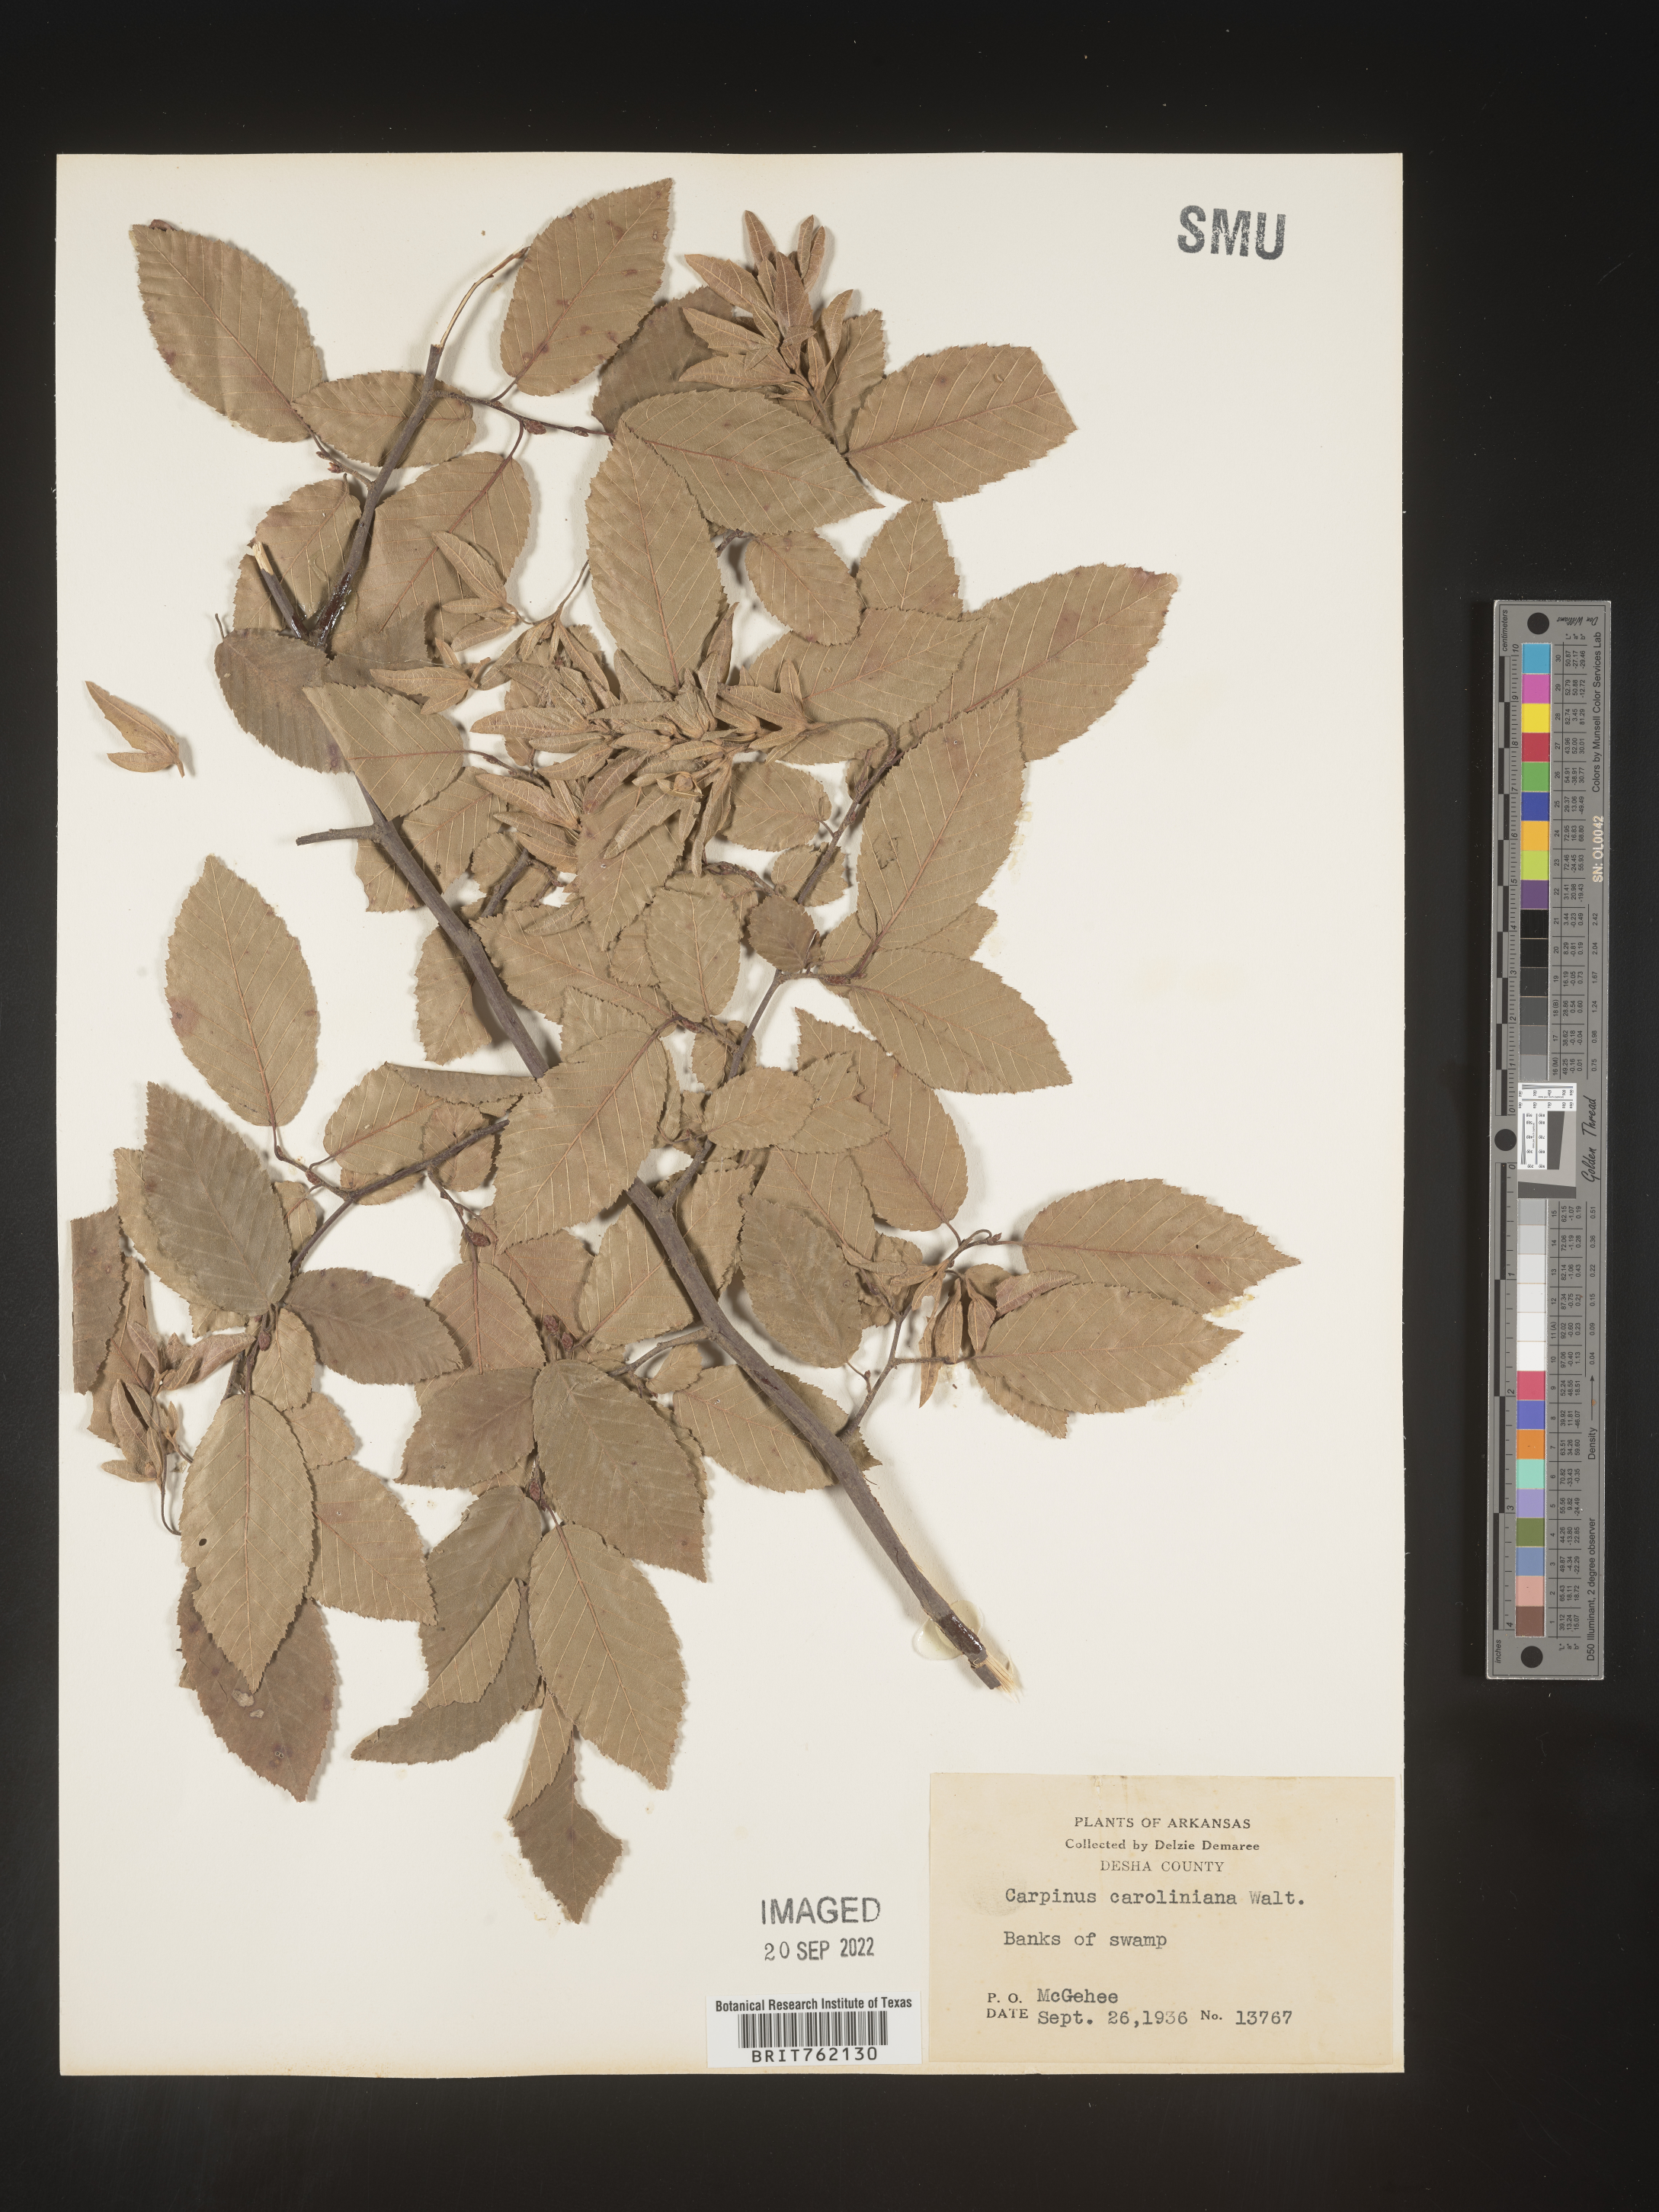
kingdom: Plantae
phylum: Tracheophyta
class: Magnoliopsida
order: Fagales
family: Betulaceae
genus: Carpinus
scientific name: Carpinus caroliniana
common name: American hornbeam
